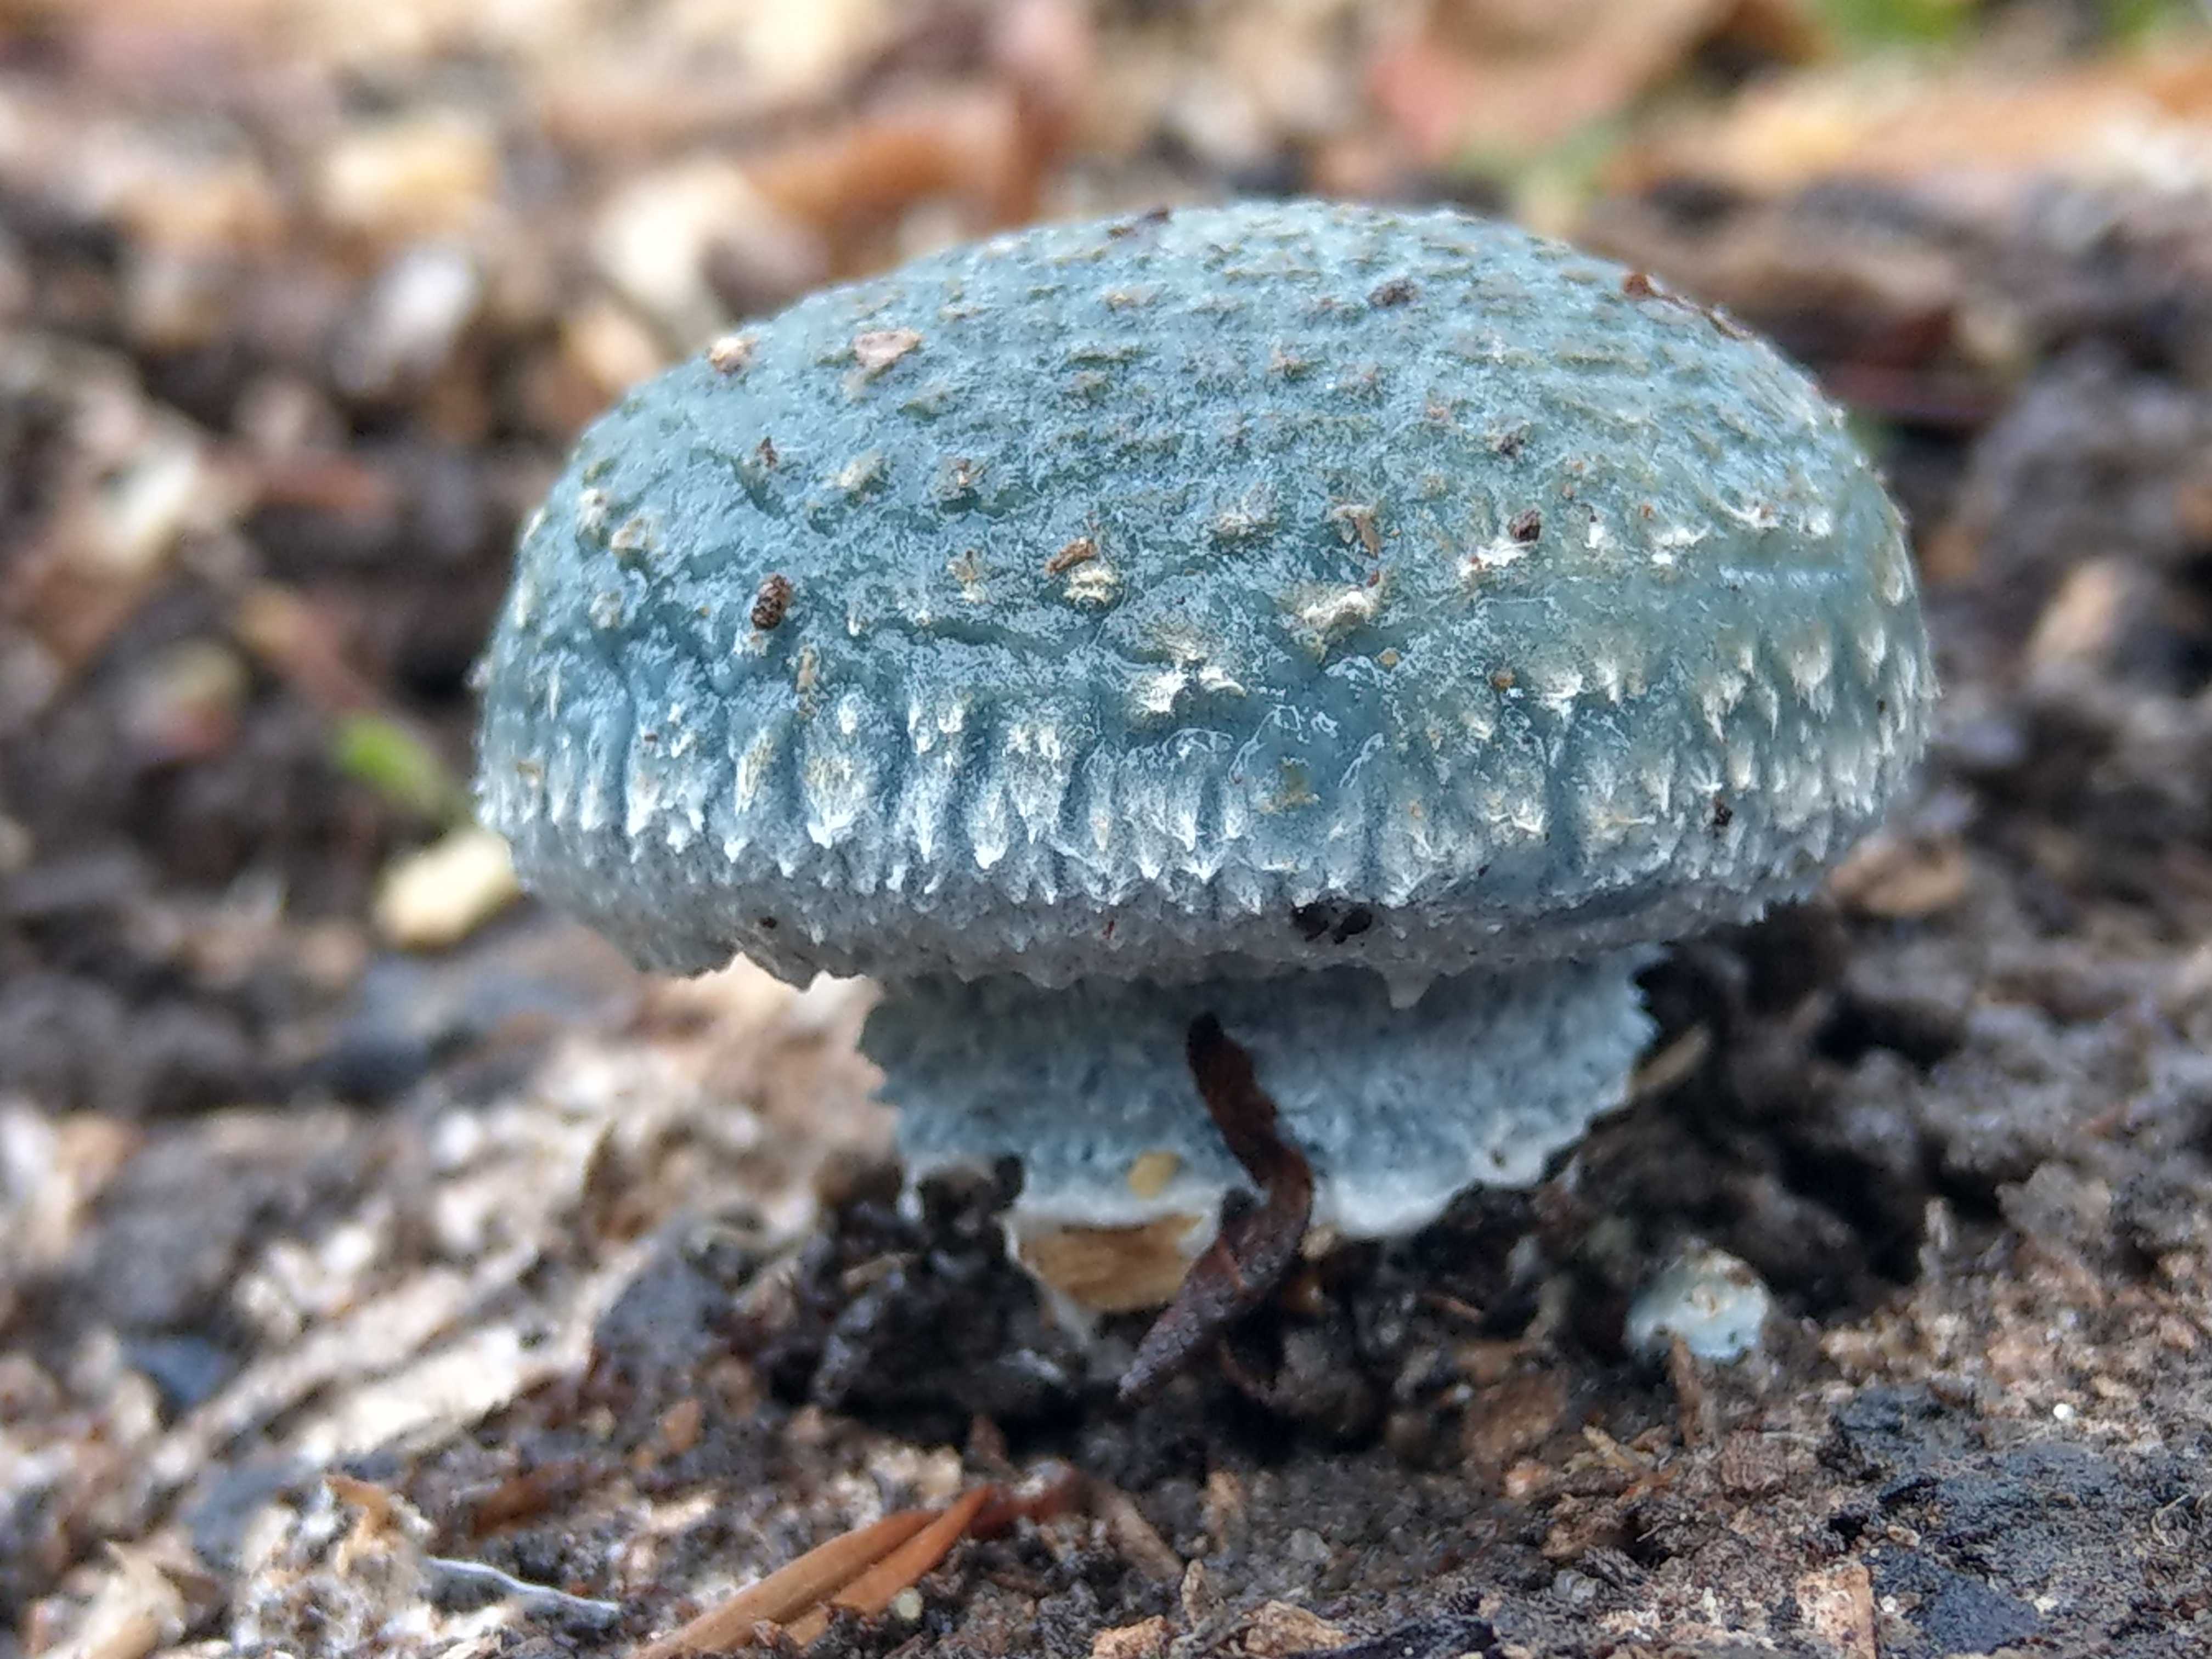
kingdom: Fungi
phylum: Basidiomycota
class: Agaricomycetes
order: Agaricales
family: Strophariaceae
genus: Stropharia
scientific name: Stropharia
